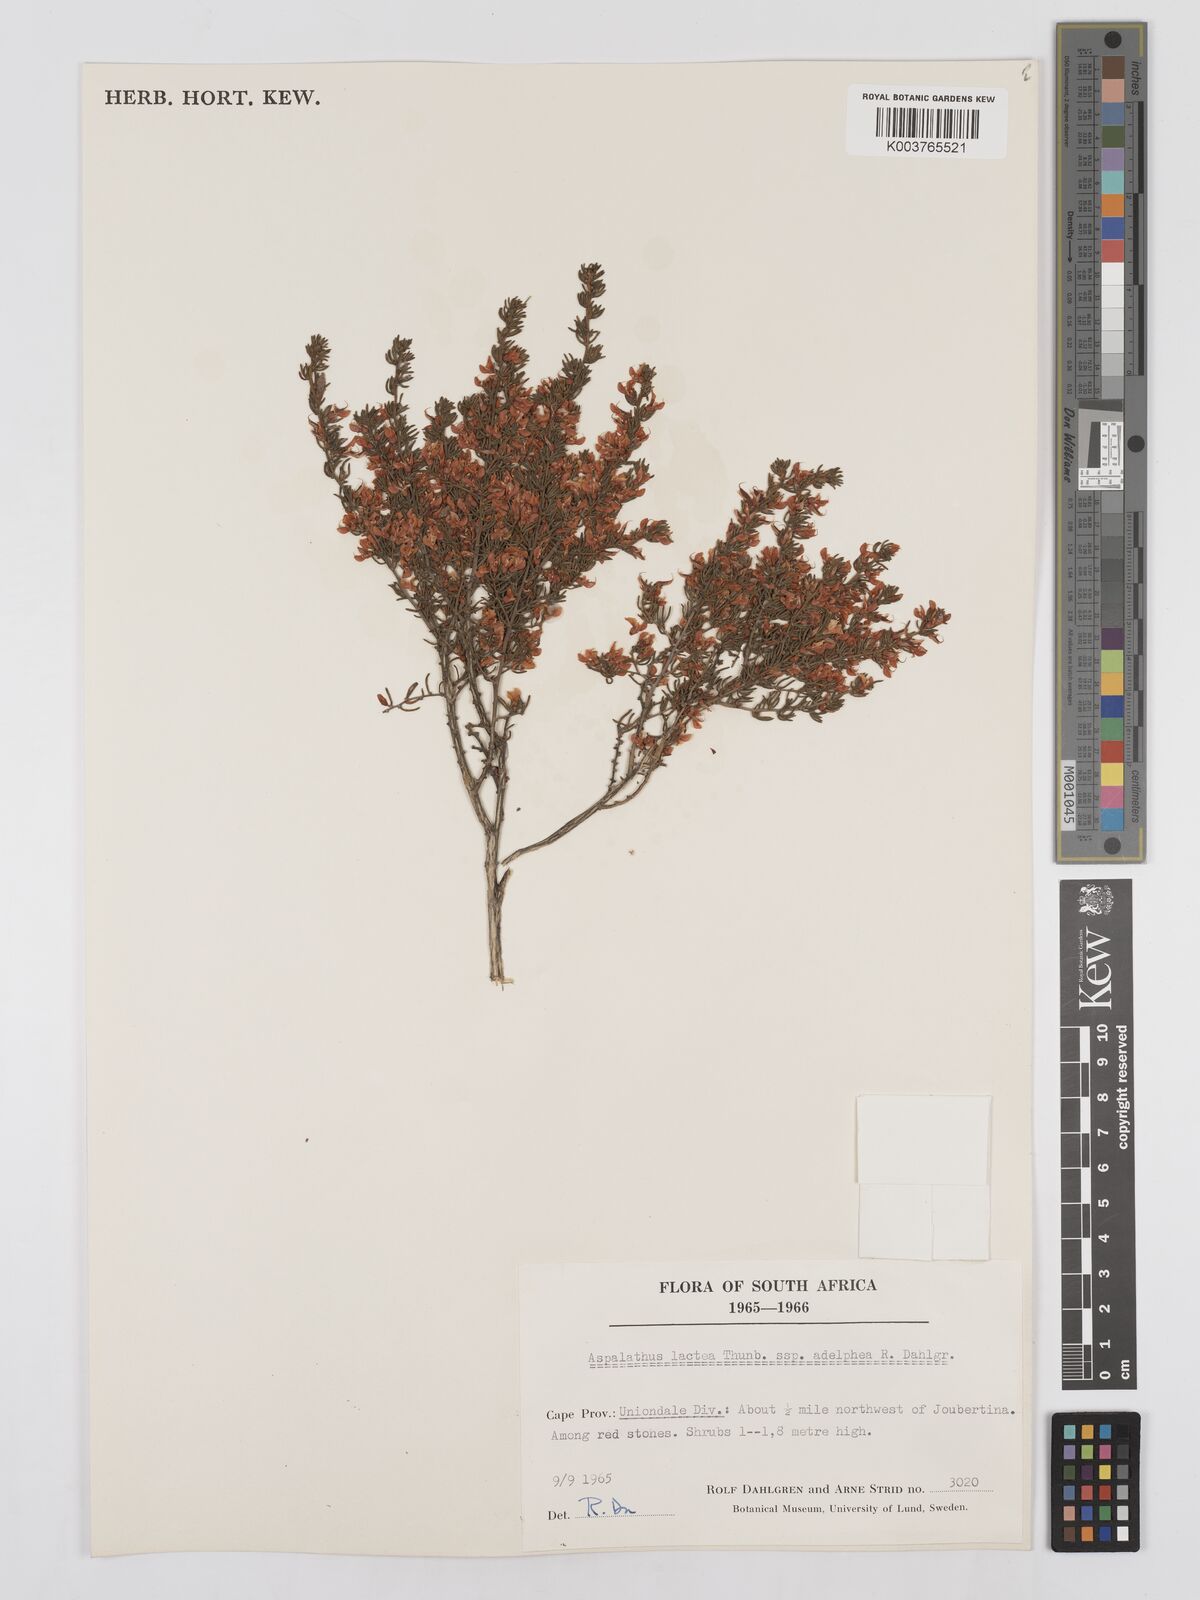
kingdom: Plantae
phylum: Tracheophyta
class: Magnoliopsida
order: Fabales
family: Fabaceae
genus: Aspalathus
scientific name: Aspalathus lactea
